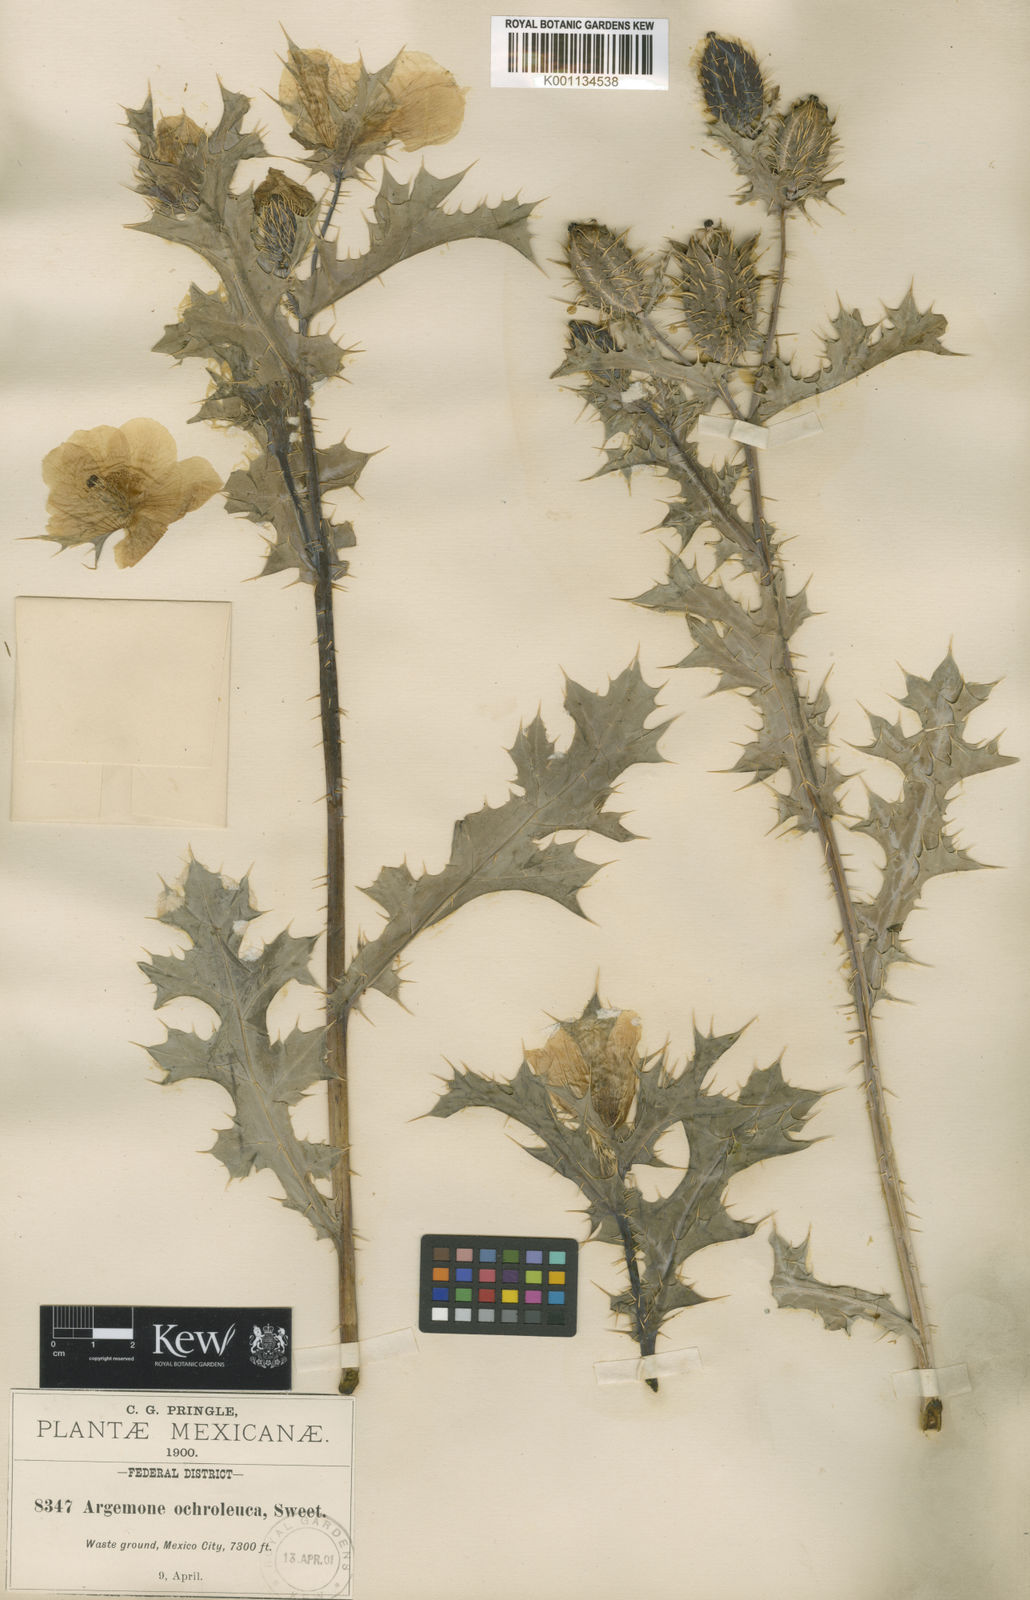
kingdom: Plantae
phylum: Tracheophyta
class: Magnoliopsida
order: Ranunculales
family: Papaveraceae
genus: Argemone
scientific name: Argemone mexicana
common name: Mexican poppy
